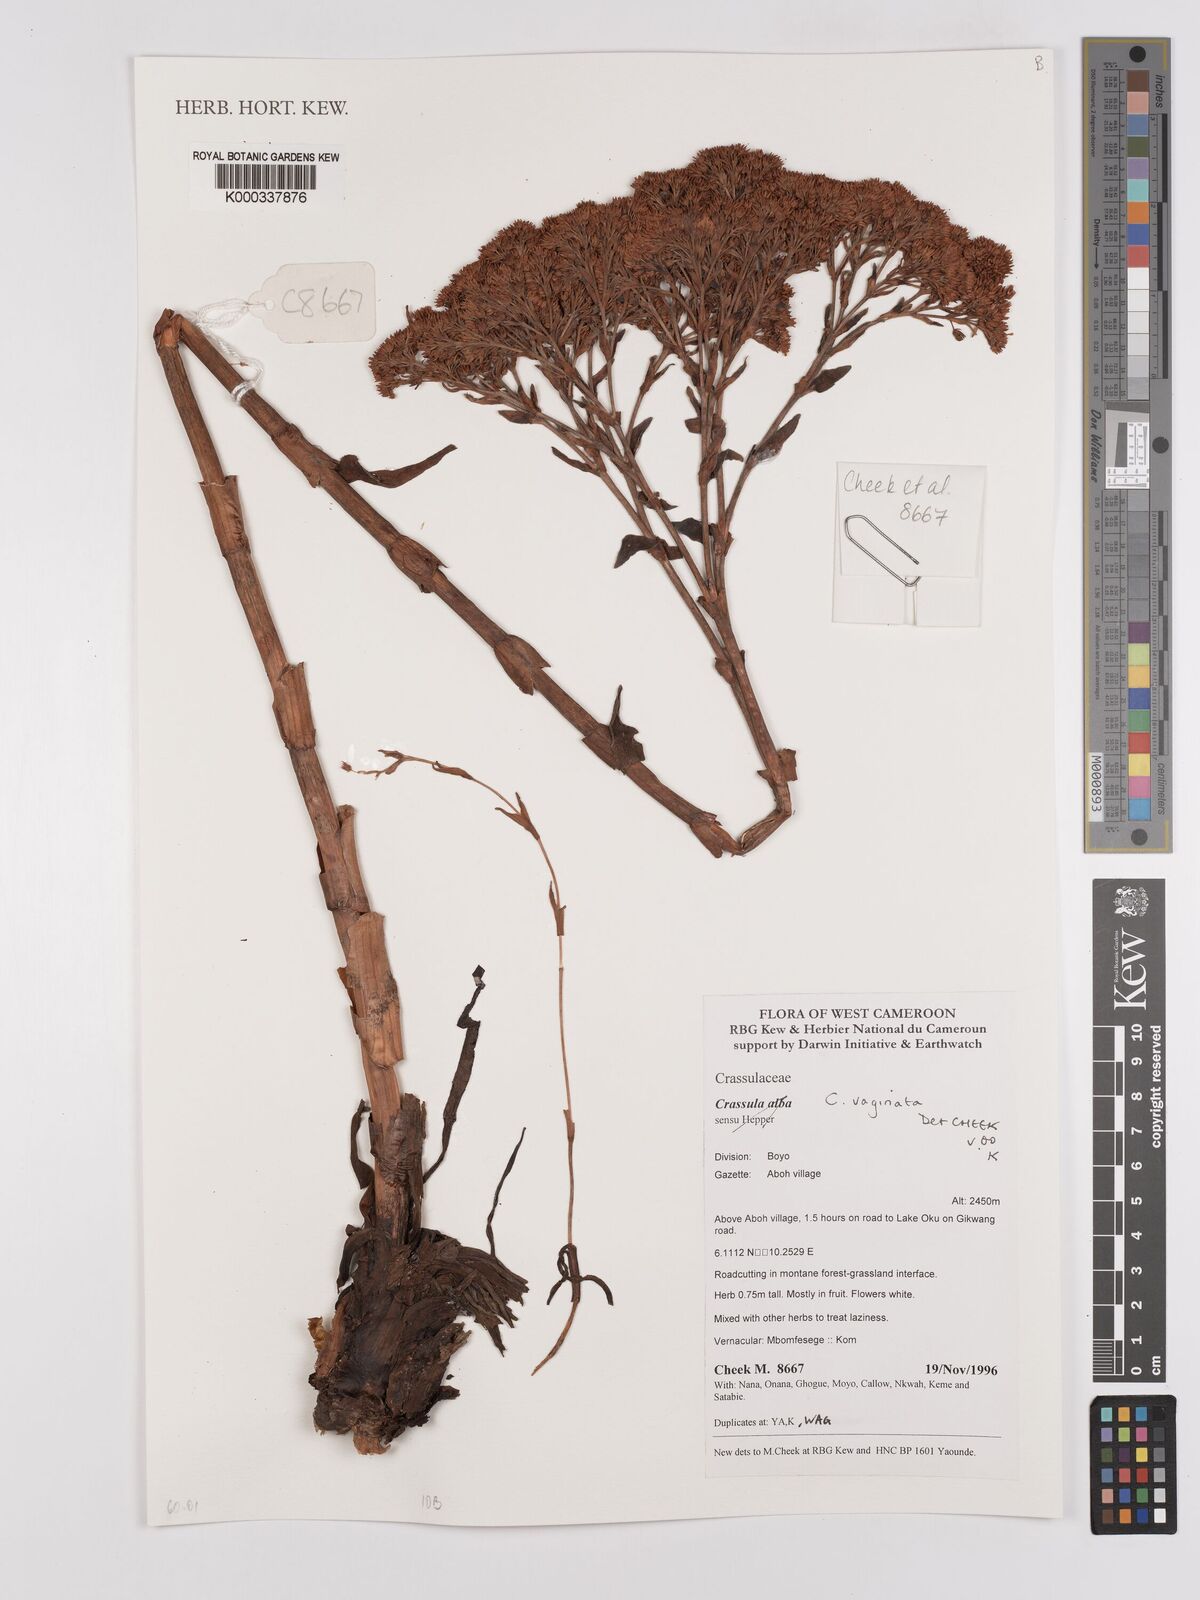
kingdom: Plantae
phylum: Tracheophyta
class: Magnoliopsida
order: Saxifragales
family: Crassulaceae
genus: Crassula
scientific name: Crassula schimperi
